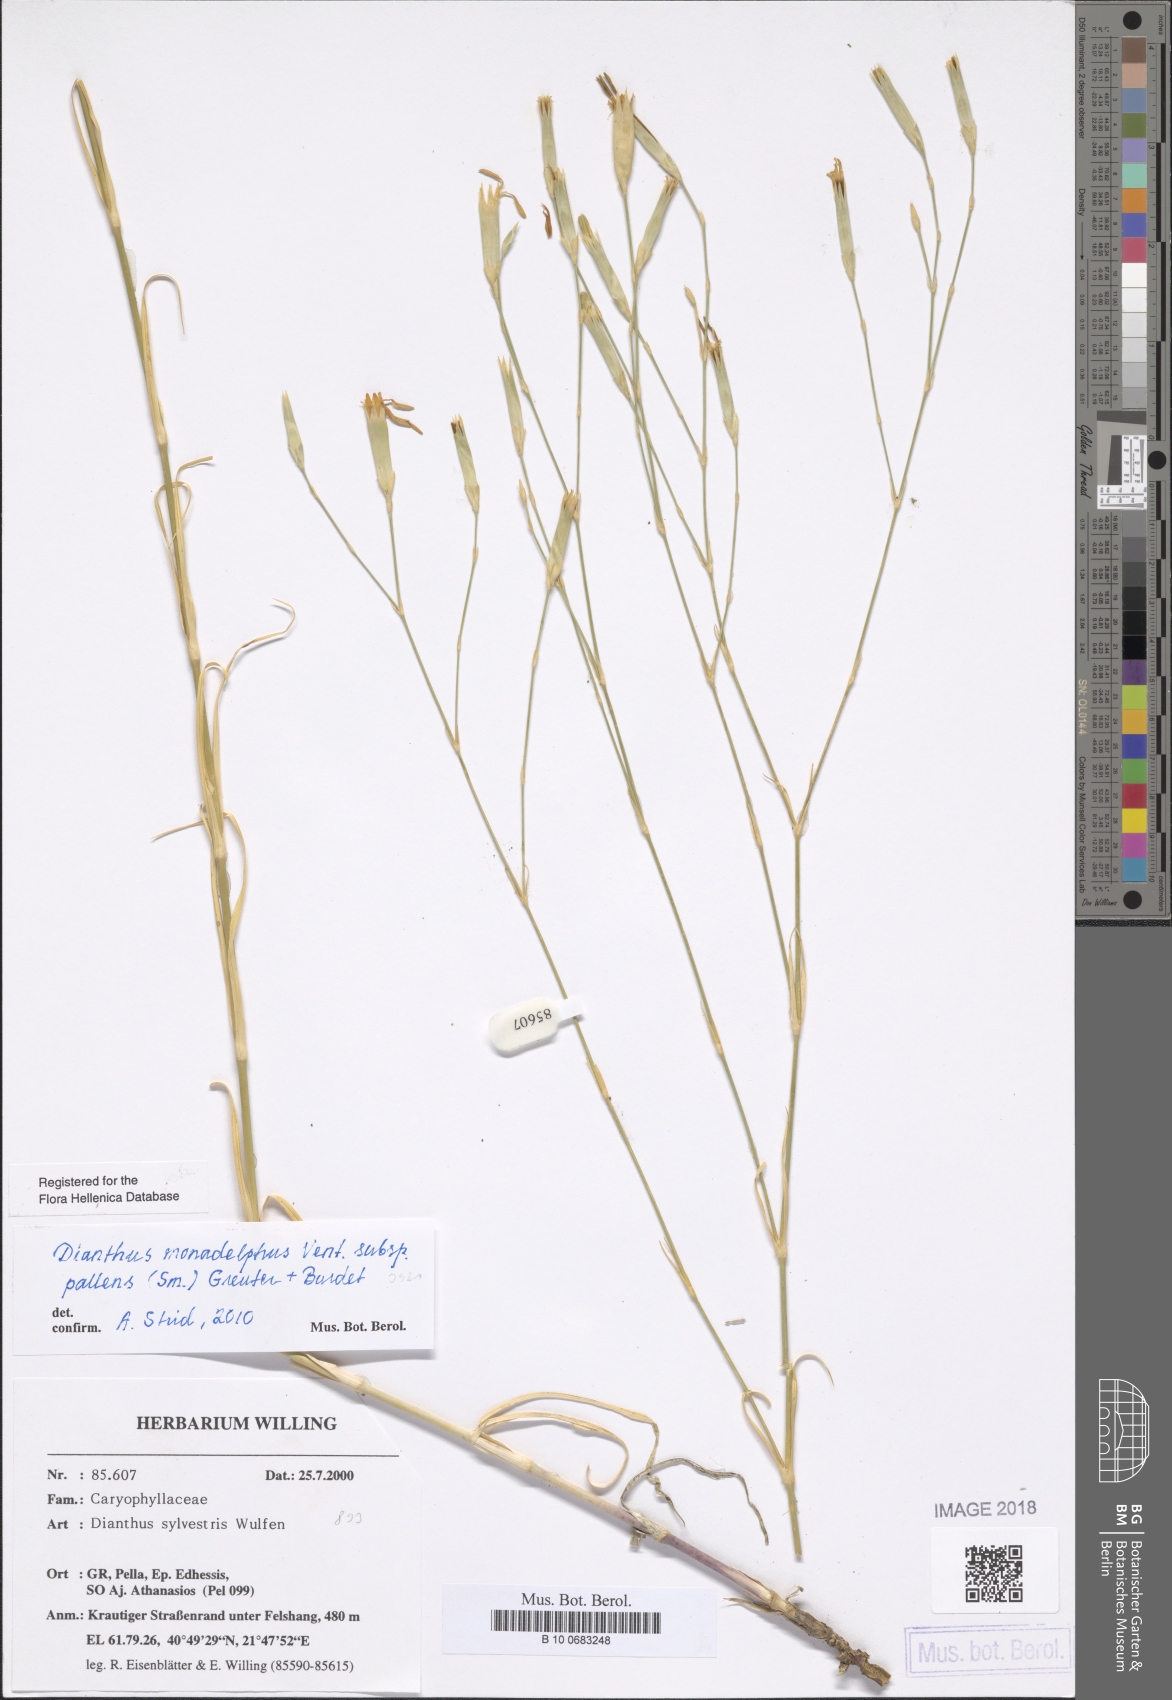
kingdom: Plantae
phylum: Tracheophyta
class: Magnoliopsida
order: Caryophyllales
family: Caryophyllaceae
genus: Dianthus
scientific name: Dianthus monadelphus
